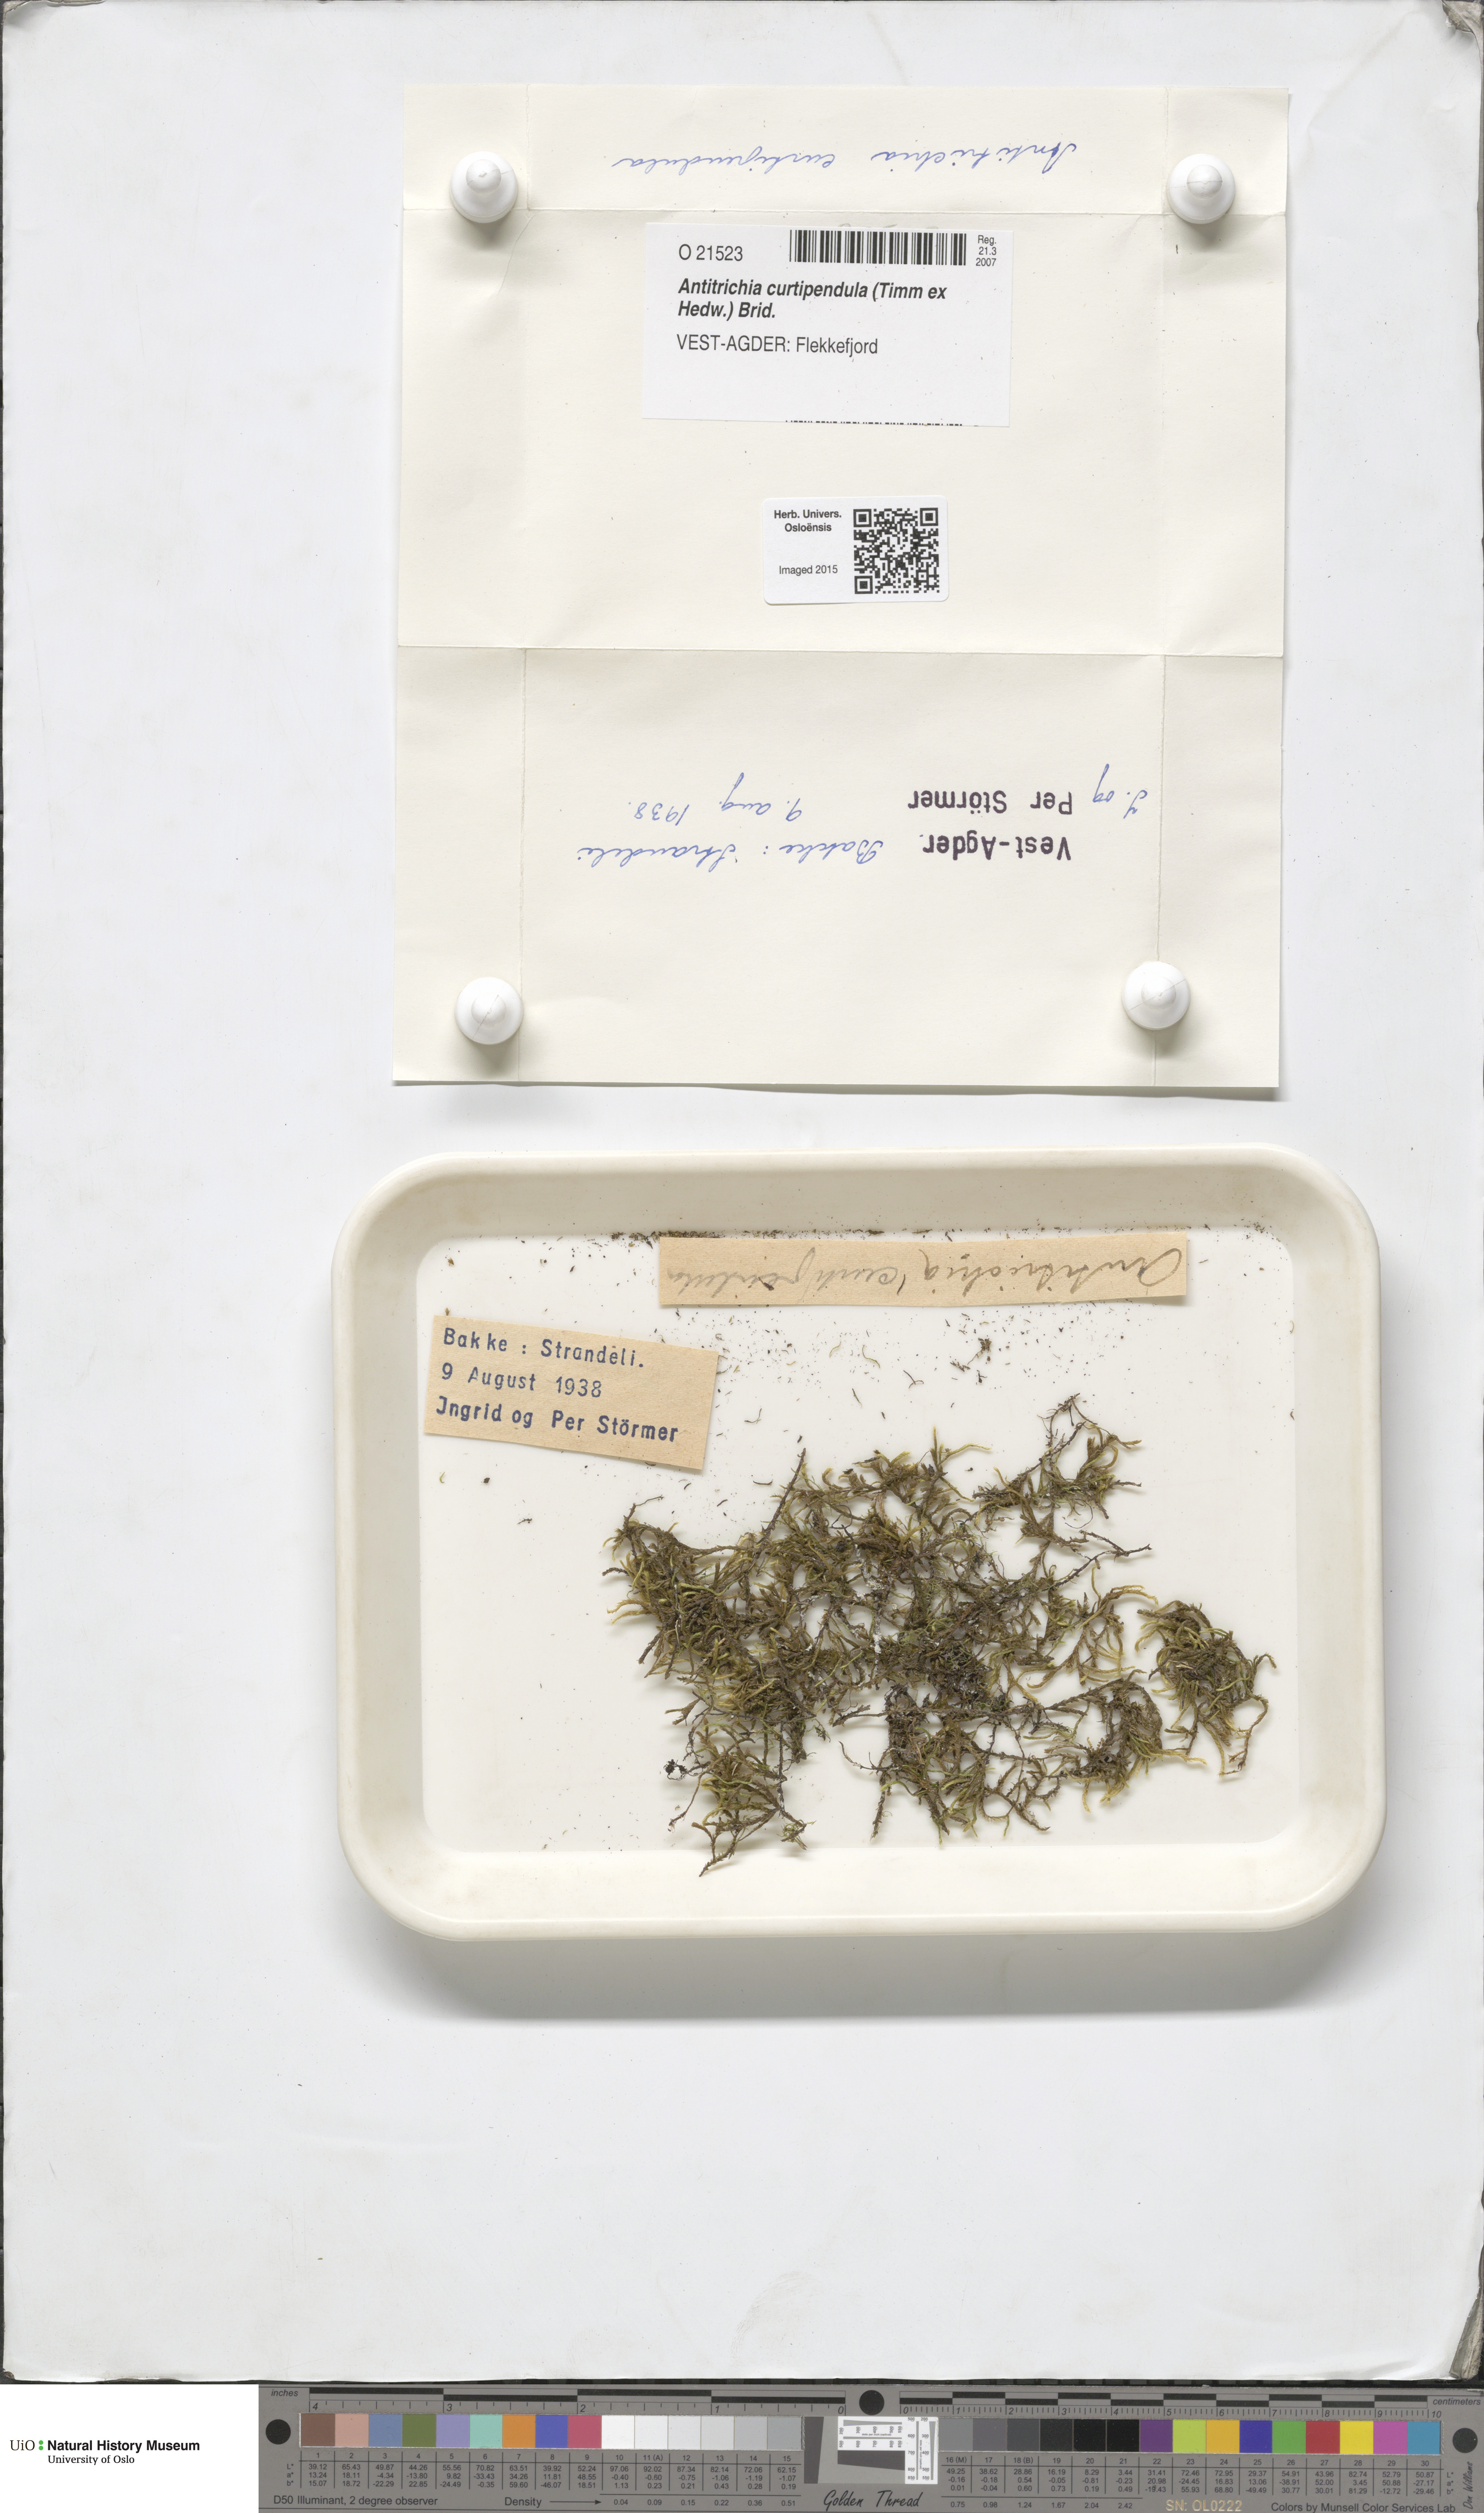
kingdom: Plantae
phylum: Bryophyta
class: Bryopsida
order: Hypnales
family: Antitrichiaceae
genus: Antitrichia
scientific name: Antitrichia curtipendula
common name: Pendulous wing-moss
